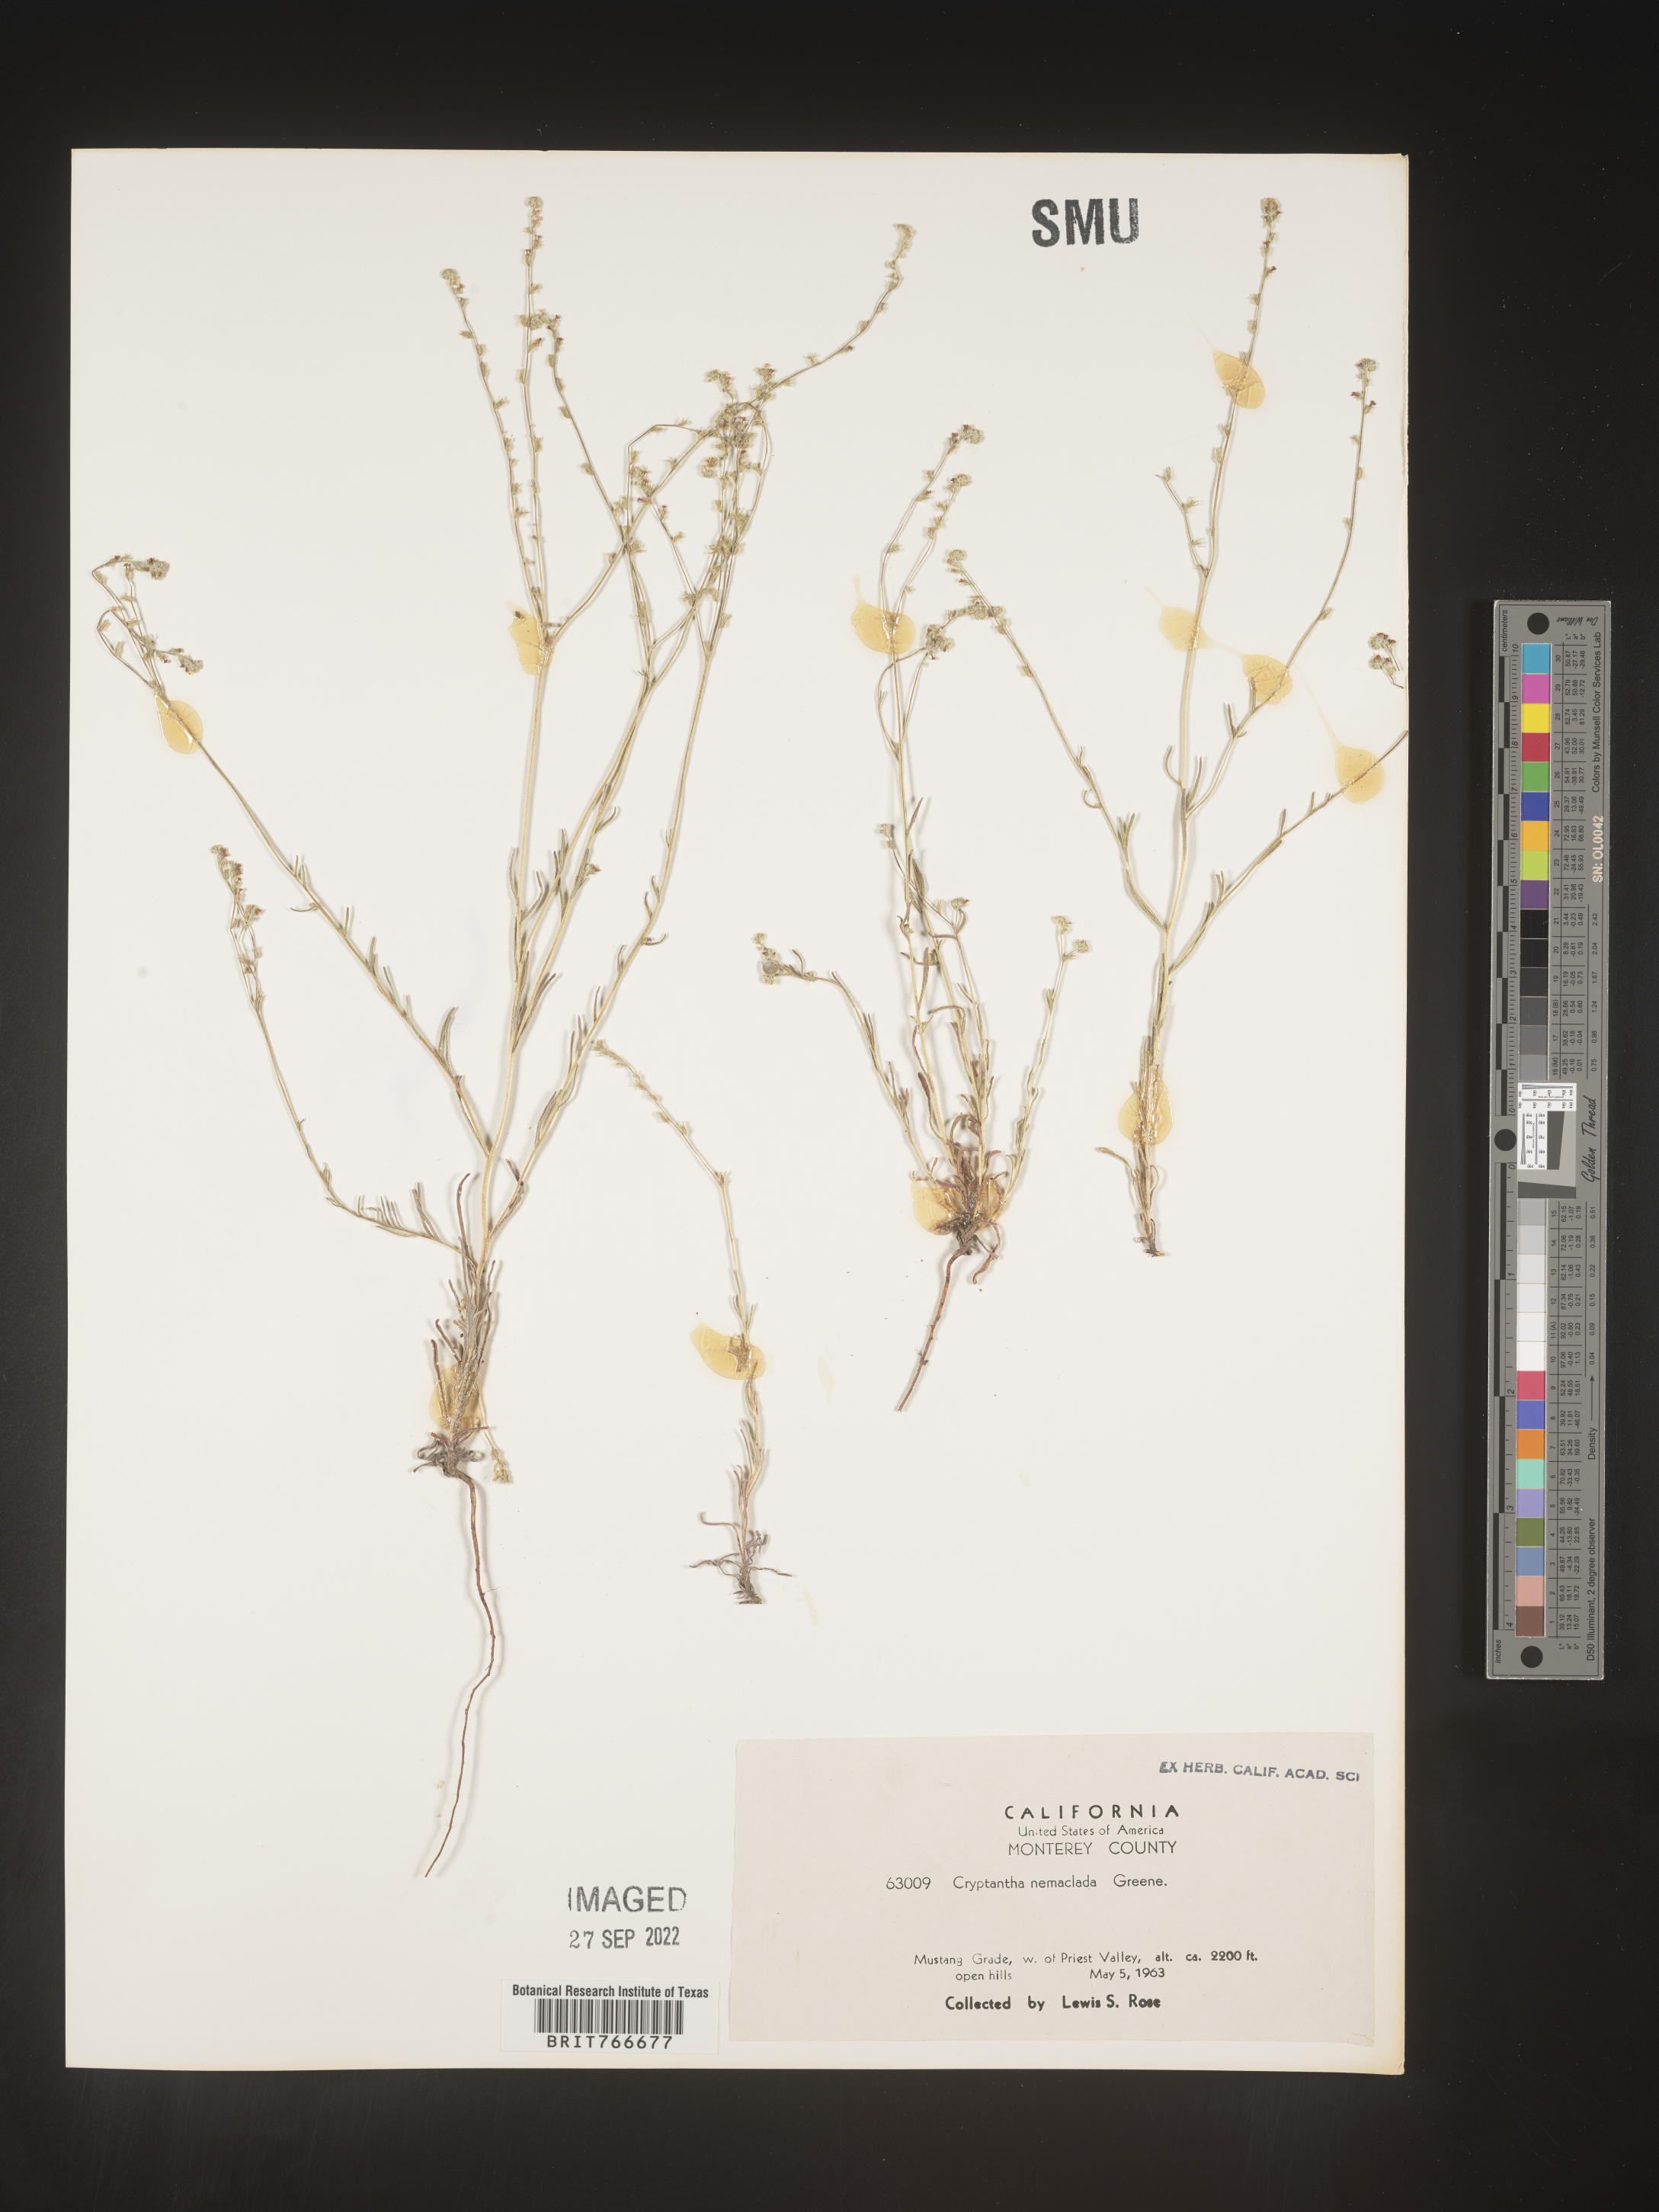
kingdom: Plantae
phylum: Tracheophyta
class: Magnoliopsida
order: Boraginales
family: Boraginaceae
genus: Cryptantha
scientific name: Cryptantha
